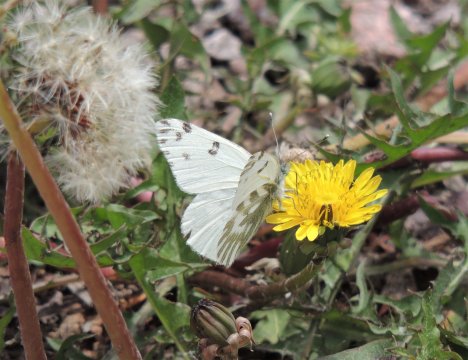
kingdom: Animalia
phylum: Arthropoda
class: Insecta
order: Lepidoptera
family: Pieridae
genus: Pontia
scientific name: Pontia beckerii
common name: Becker's White
